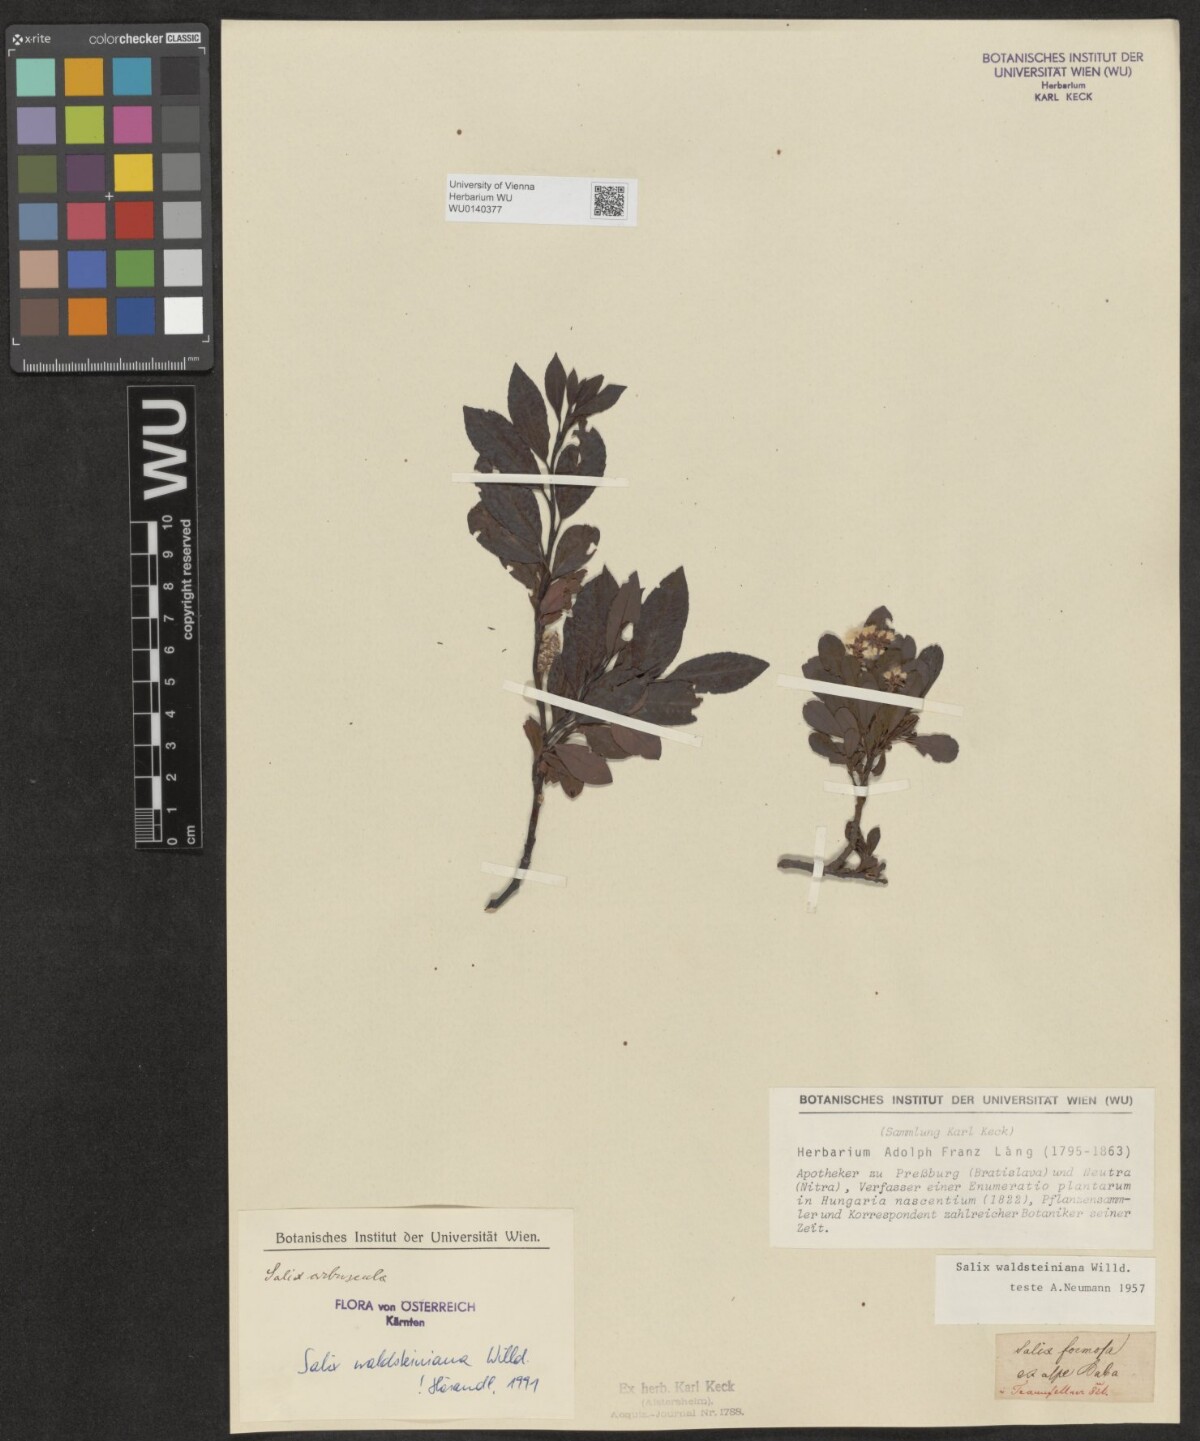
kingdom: Plantae
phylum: Tracheophyta
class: Magnoliopsida
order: Malpighiales
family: Salicaceae
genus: Salix
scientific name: Salix waldsteiniana
